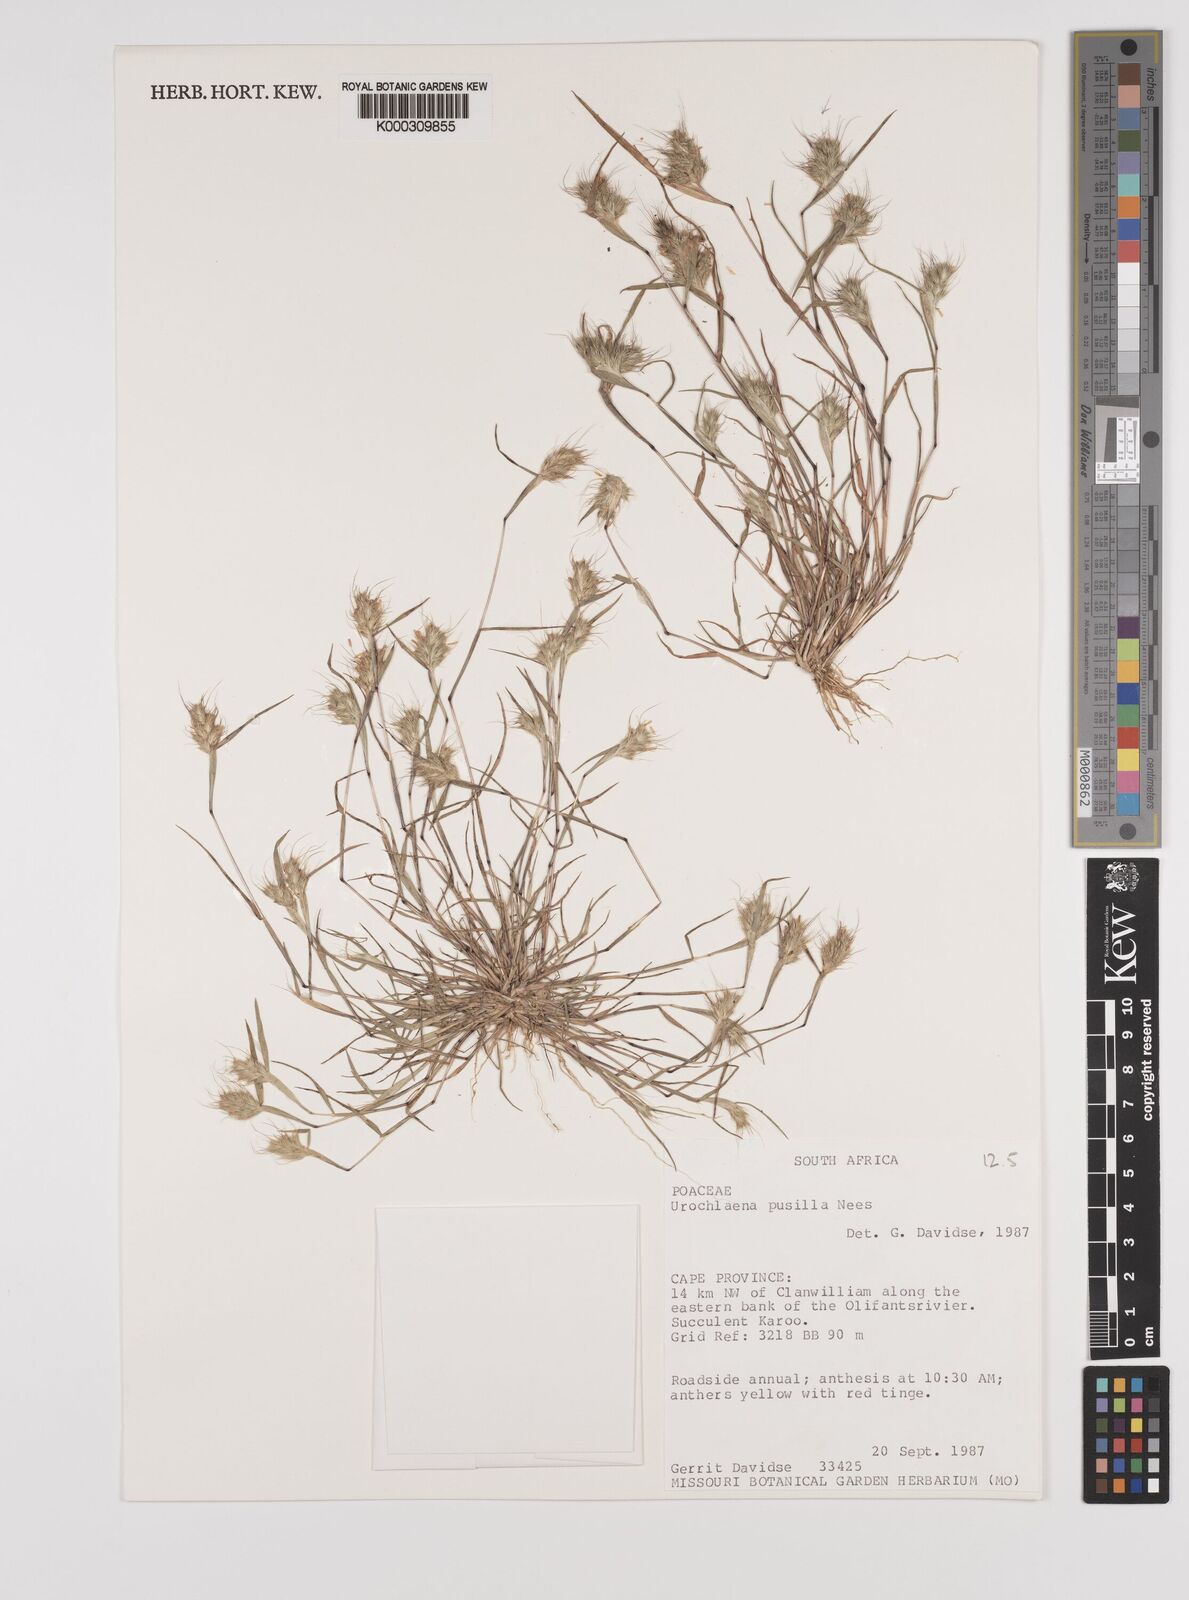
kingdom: Plantae
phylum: Tracheophyta
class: Liliopsida
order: Poales
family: Poaceae
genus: Tribolium
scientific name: Tribolium pusillum
